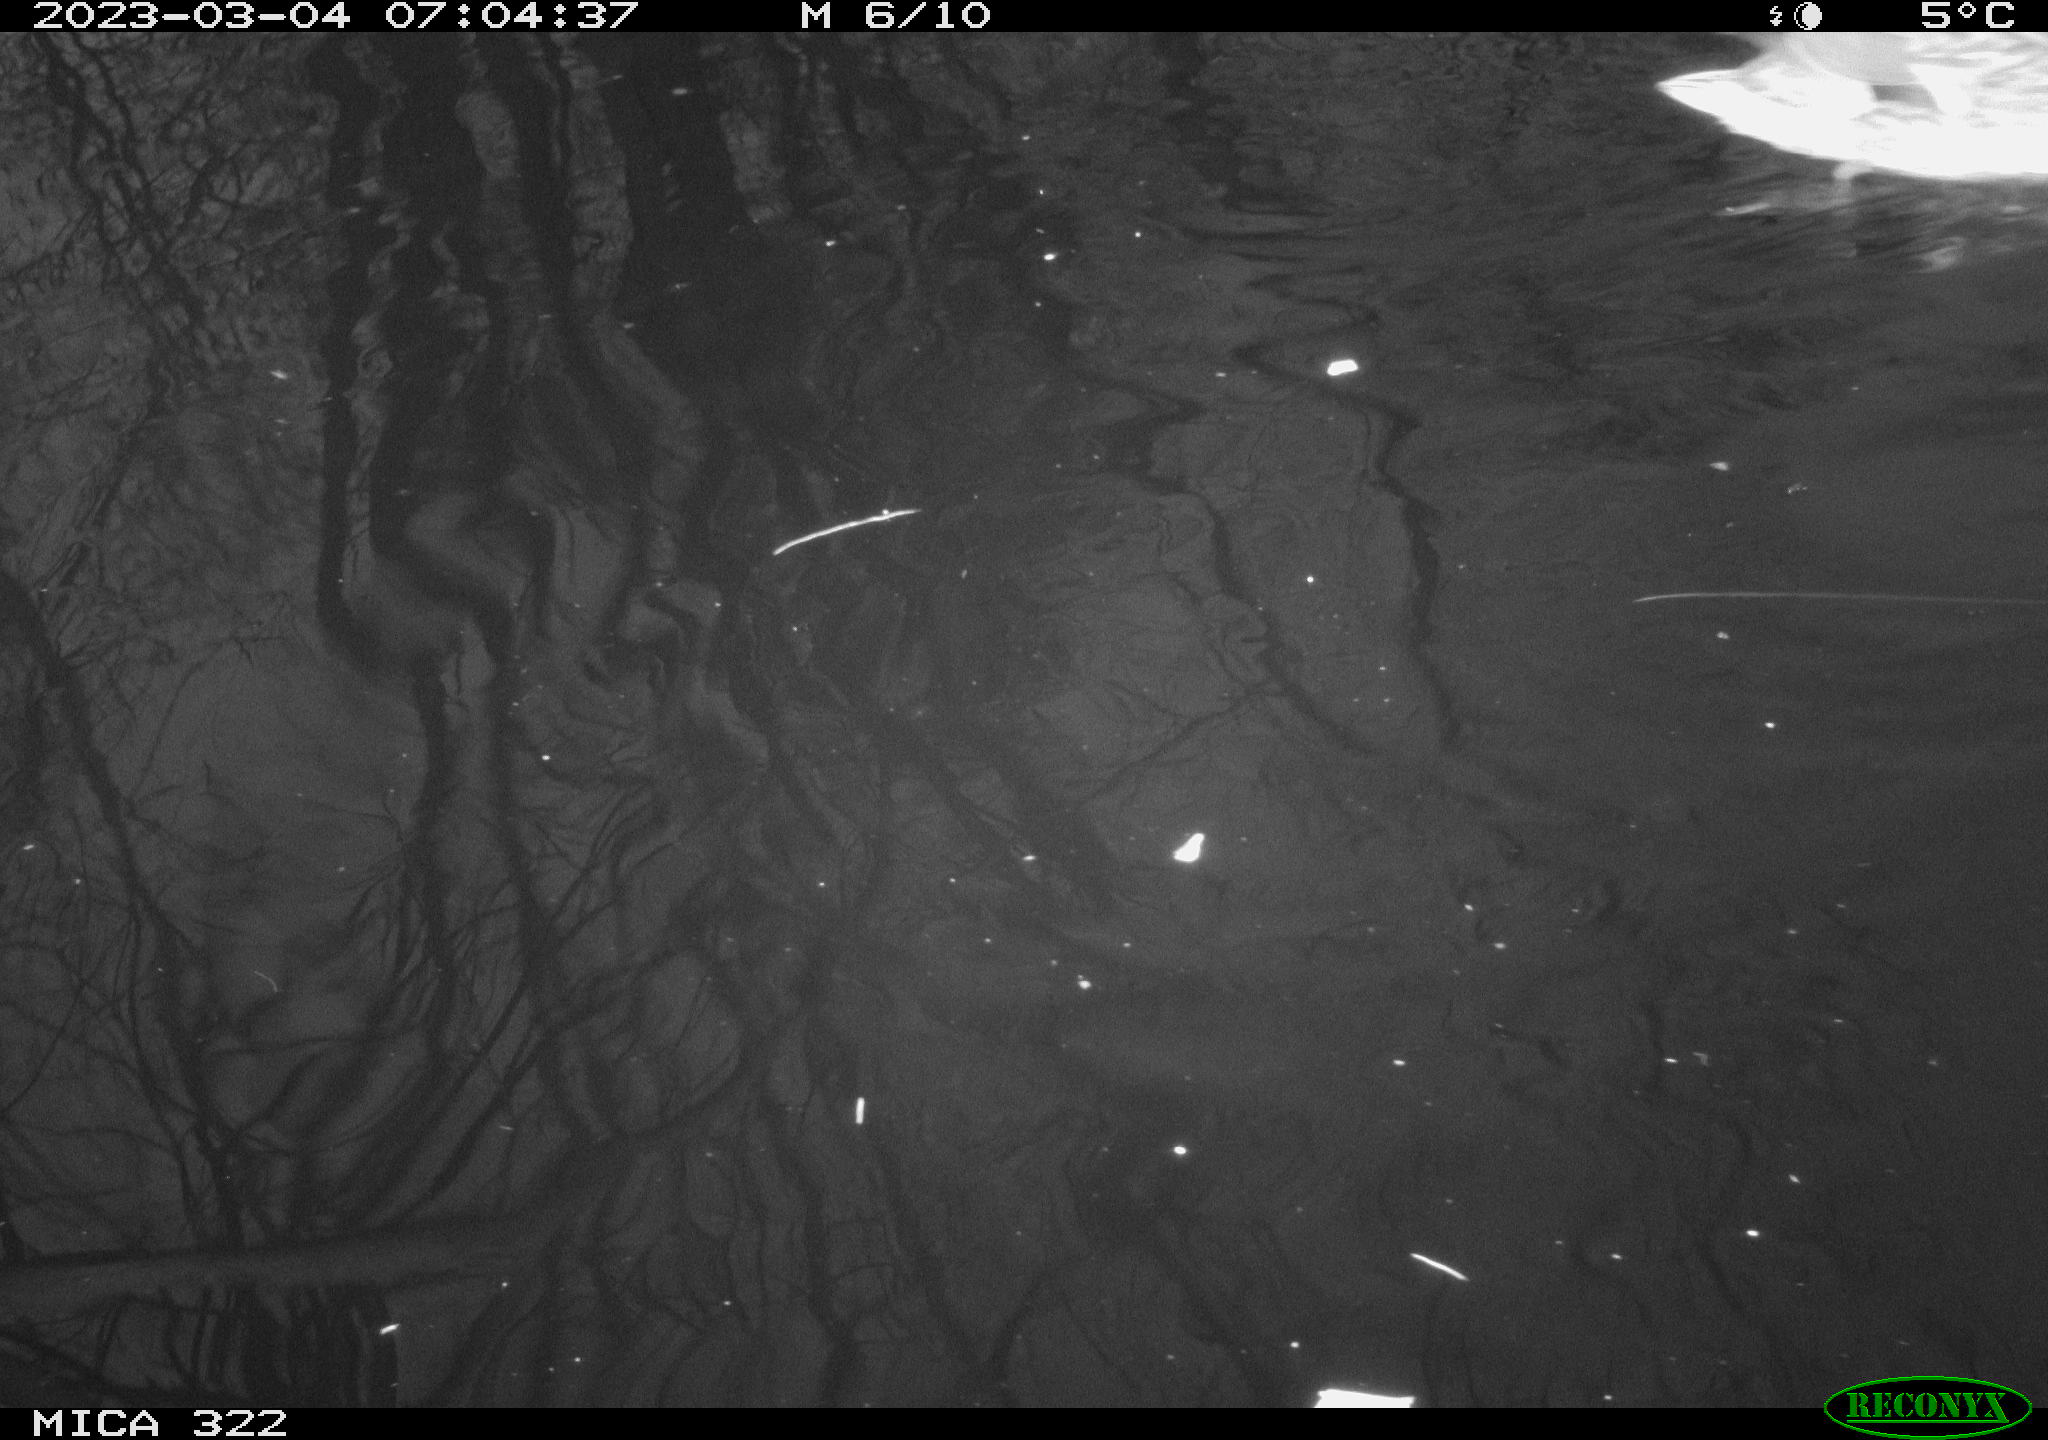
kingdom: Animalia
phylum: Chordata
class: Aves
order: Anseriformes
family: Anatidae
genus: Anas
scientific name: Anas
